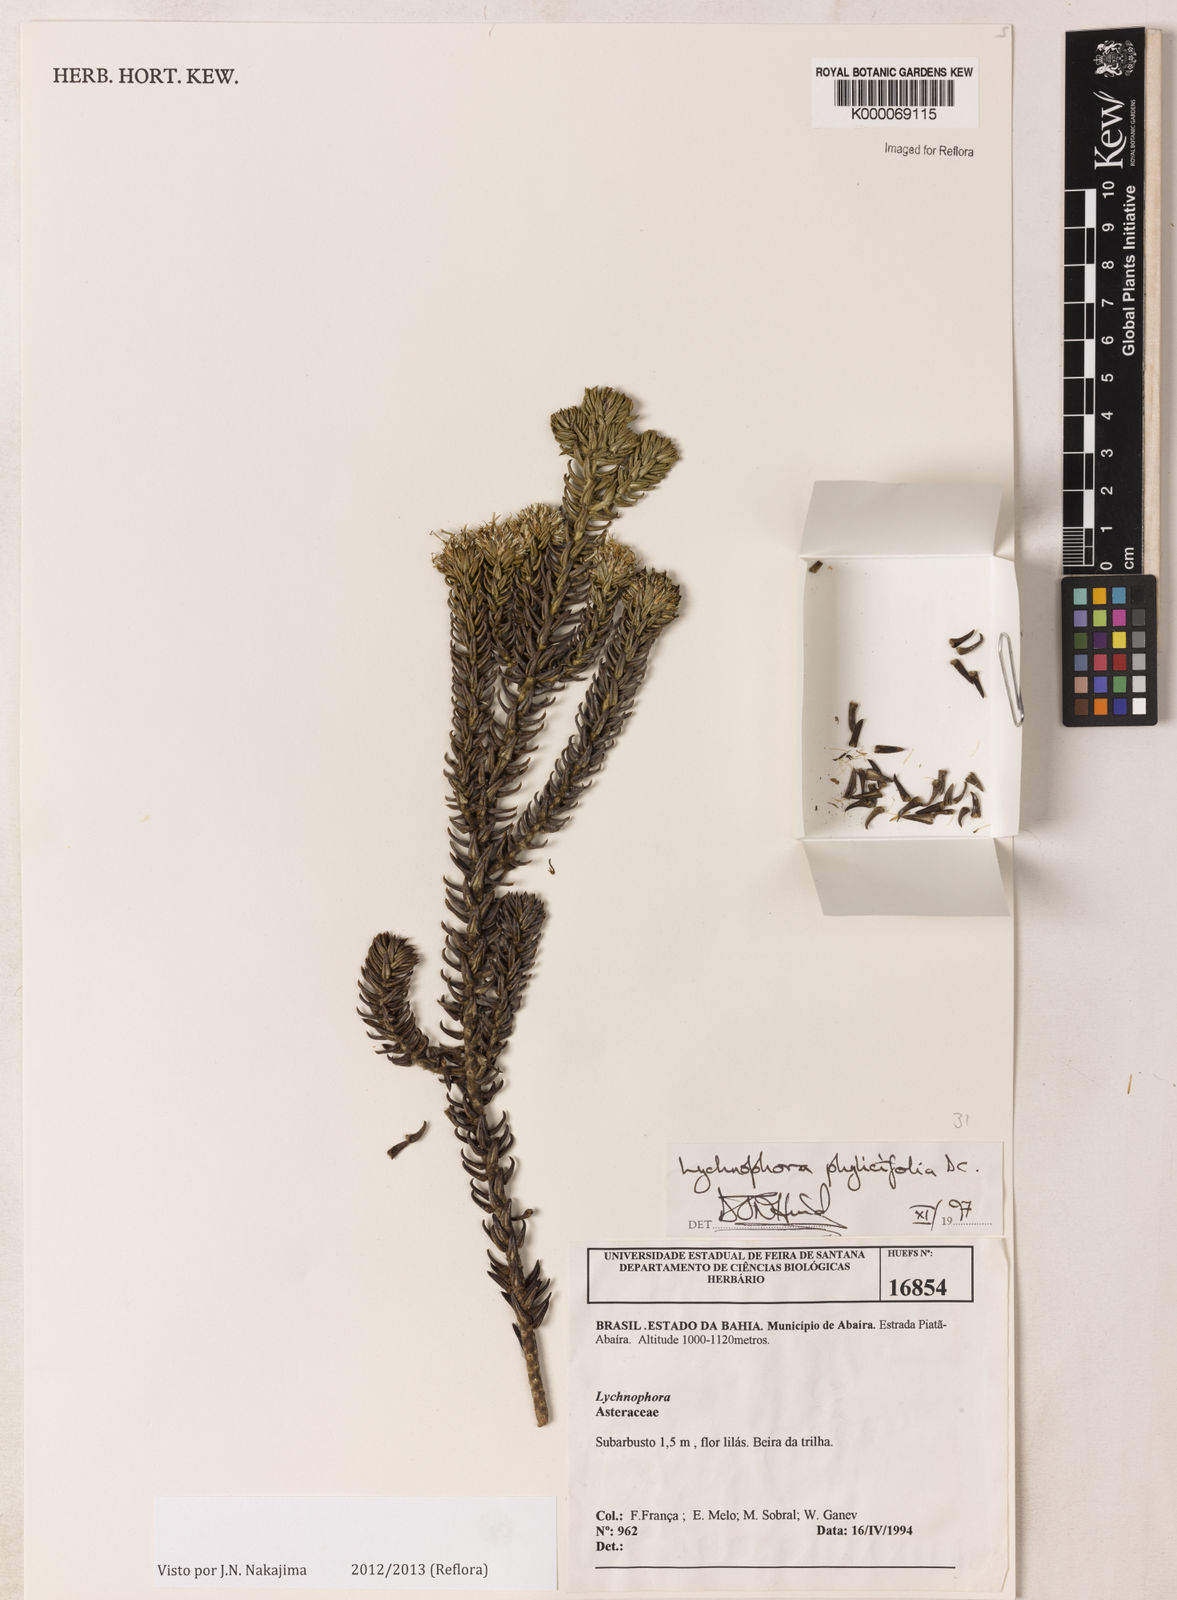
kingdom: Plantae
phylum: Tracheophyta
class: Magnoliopsida
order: Asterales
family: Asteraceae
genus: Lychnophora
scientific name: Lychnophora phylicifolia
